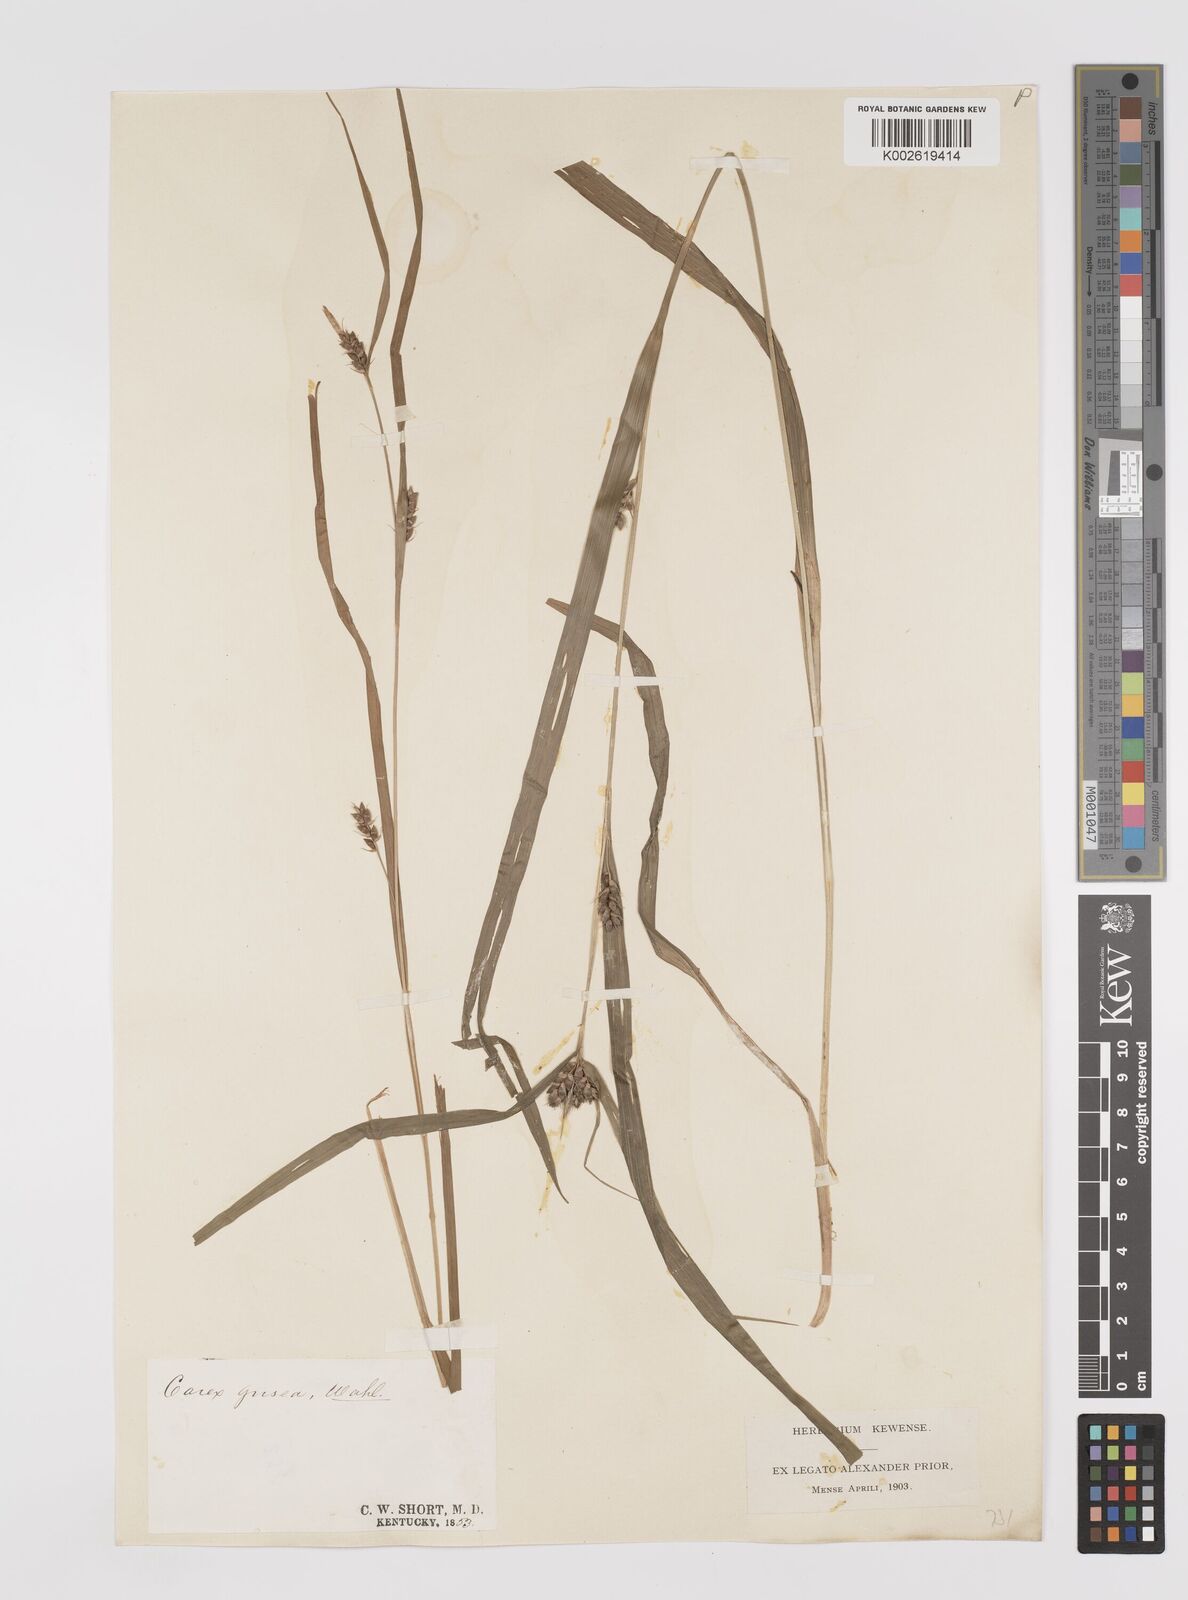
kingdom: Plantae
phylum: Tracheophyta
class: Liliopsida
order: Poales
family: Cyperaceae
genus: Carex
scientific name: Carex grisea
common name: Eastern narrow-leaved sedge
